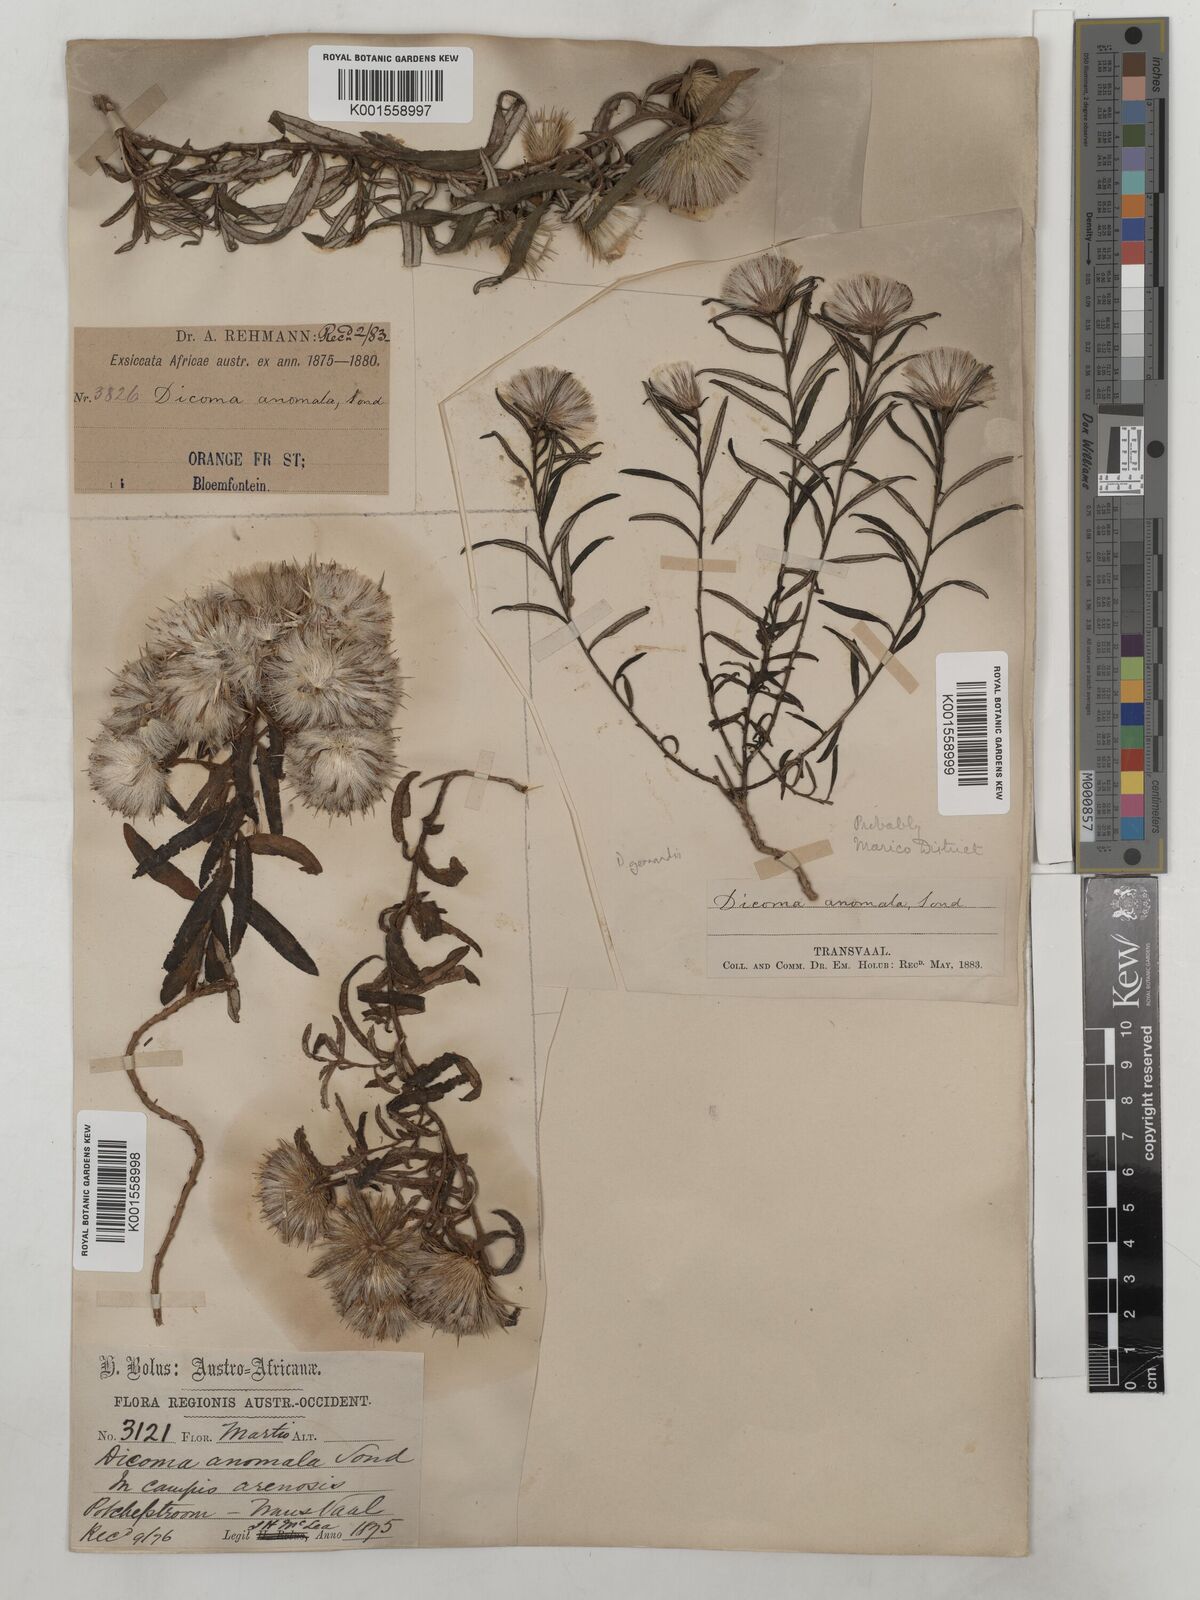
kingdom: Plantae
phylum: Tracheophyta
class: Magnoliopsida
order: Asterales
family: Asteraceae
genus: Dicoma
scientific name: Dicoma anomala
